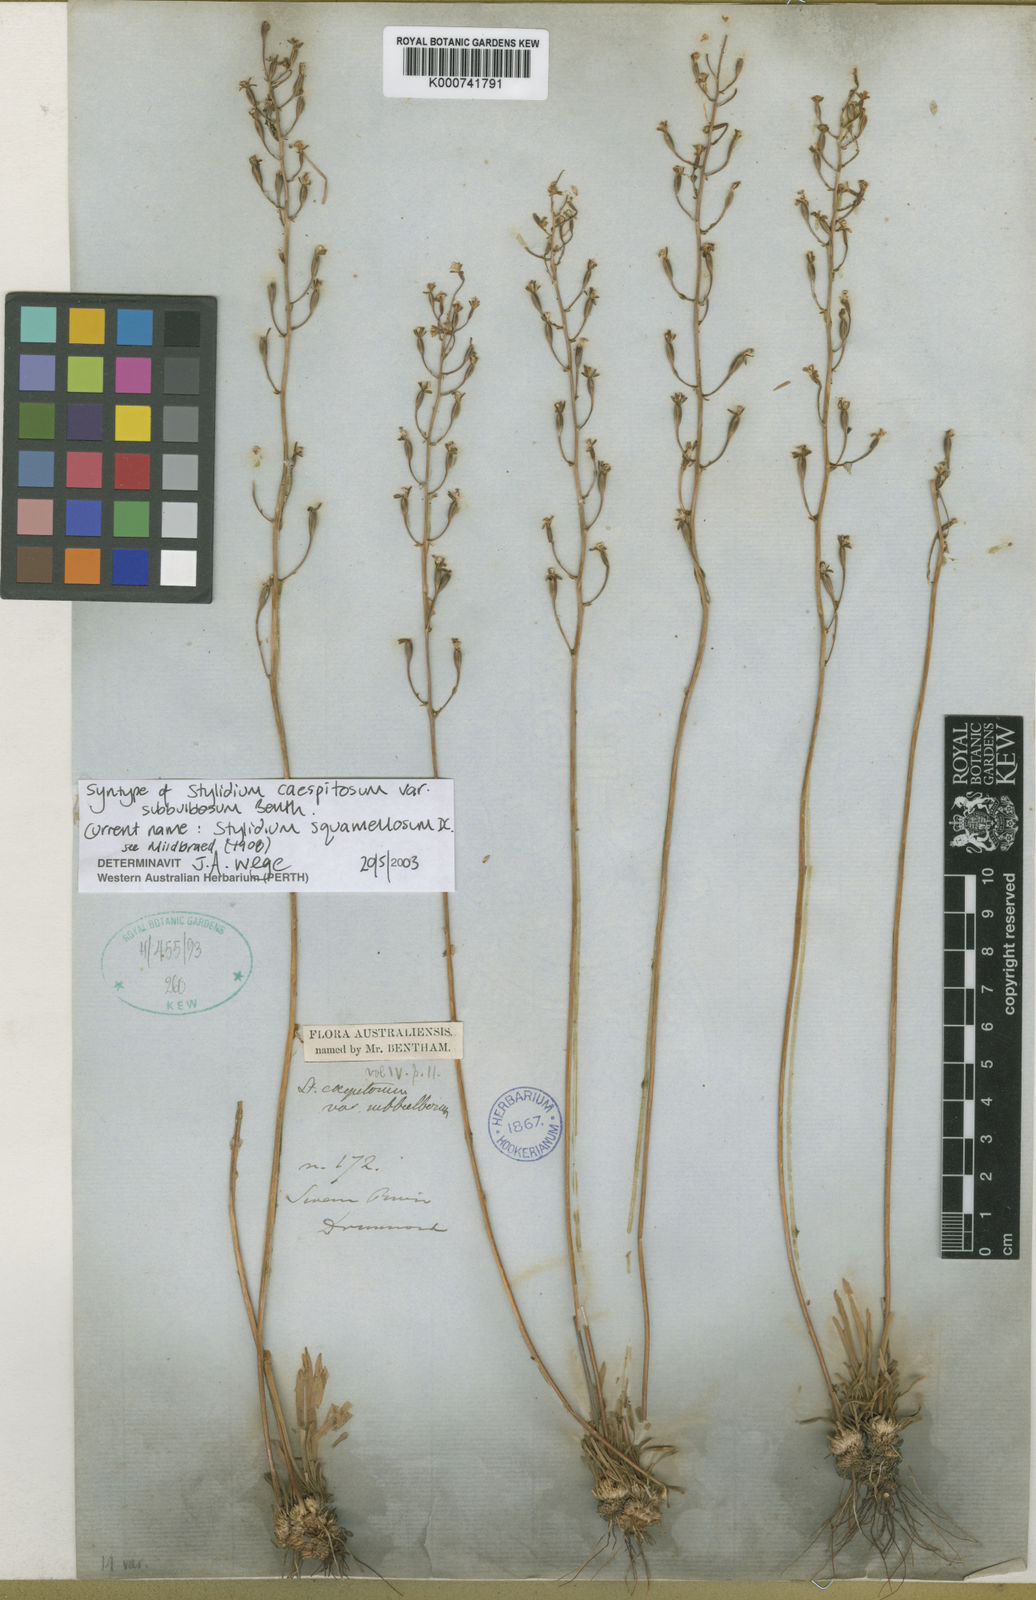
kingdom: Plantae
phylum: Tracheophyta
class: Magnoliopsida
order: Asterales
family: Stylidiaceae
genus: Stylidium
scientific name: Stylidium squamellosum
